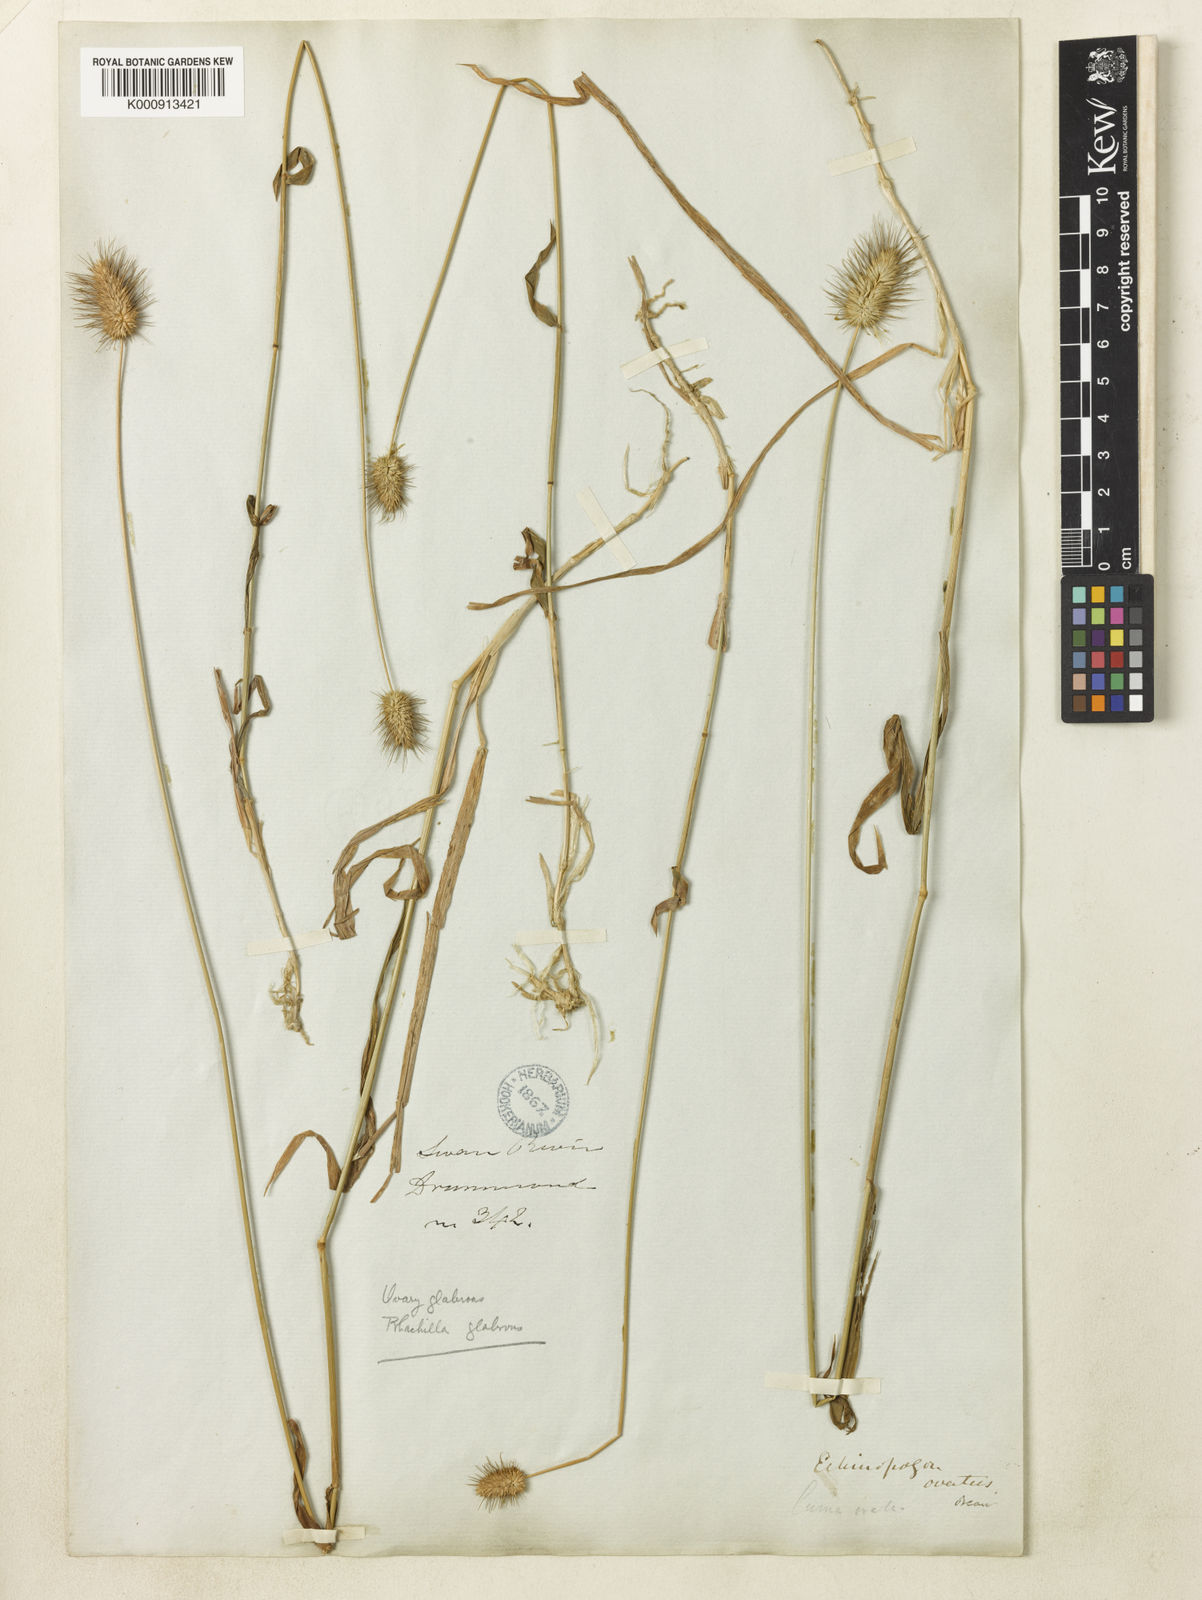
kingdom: Plantae
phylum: Tracheophyta
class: Liliopsida
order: Poales
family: Poaceae
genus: Echinopogon
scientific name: Echinopogon ovatus
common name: Hedgehog-grass
